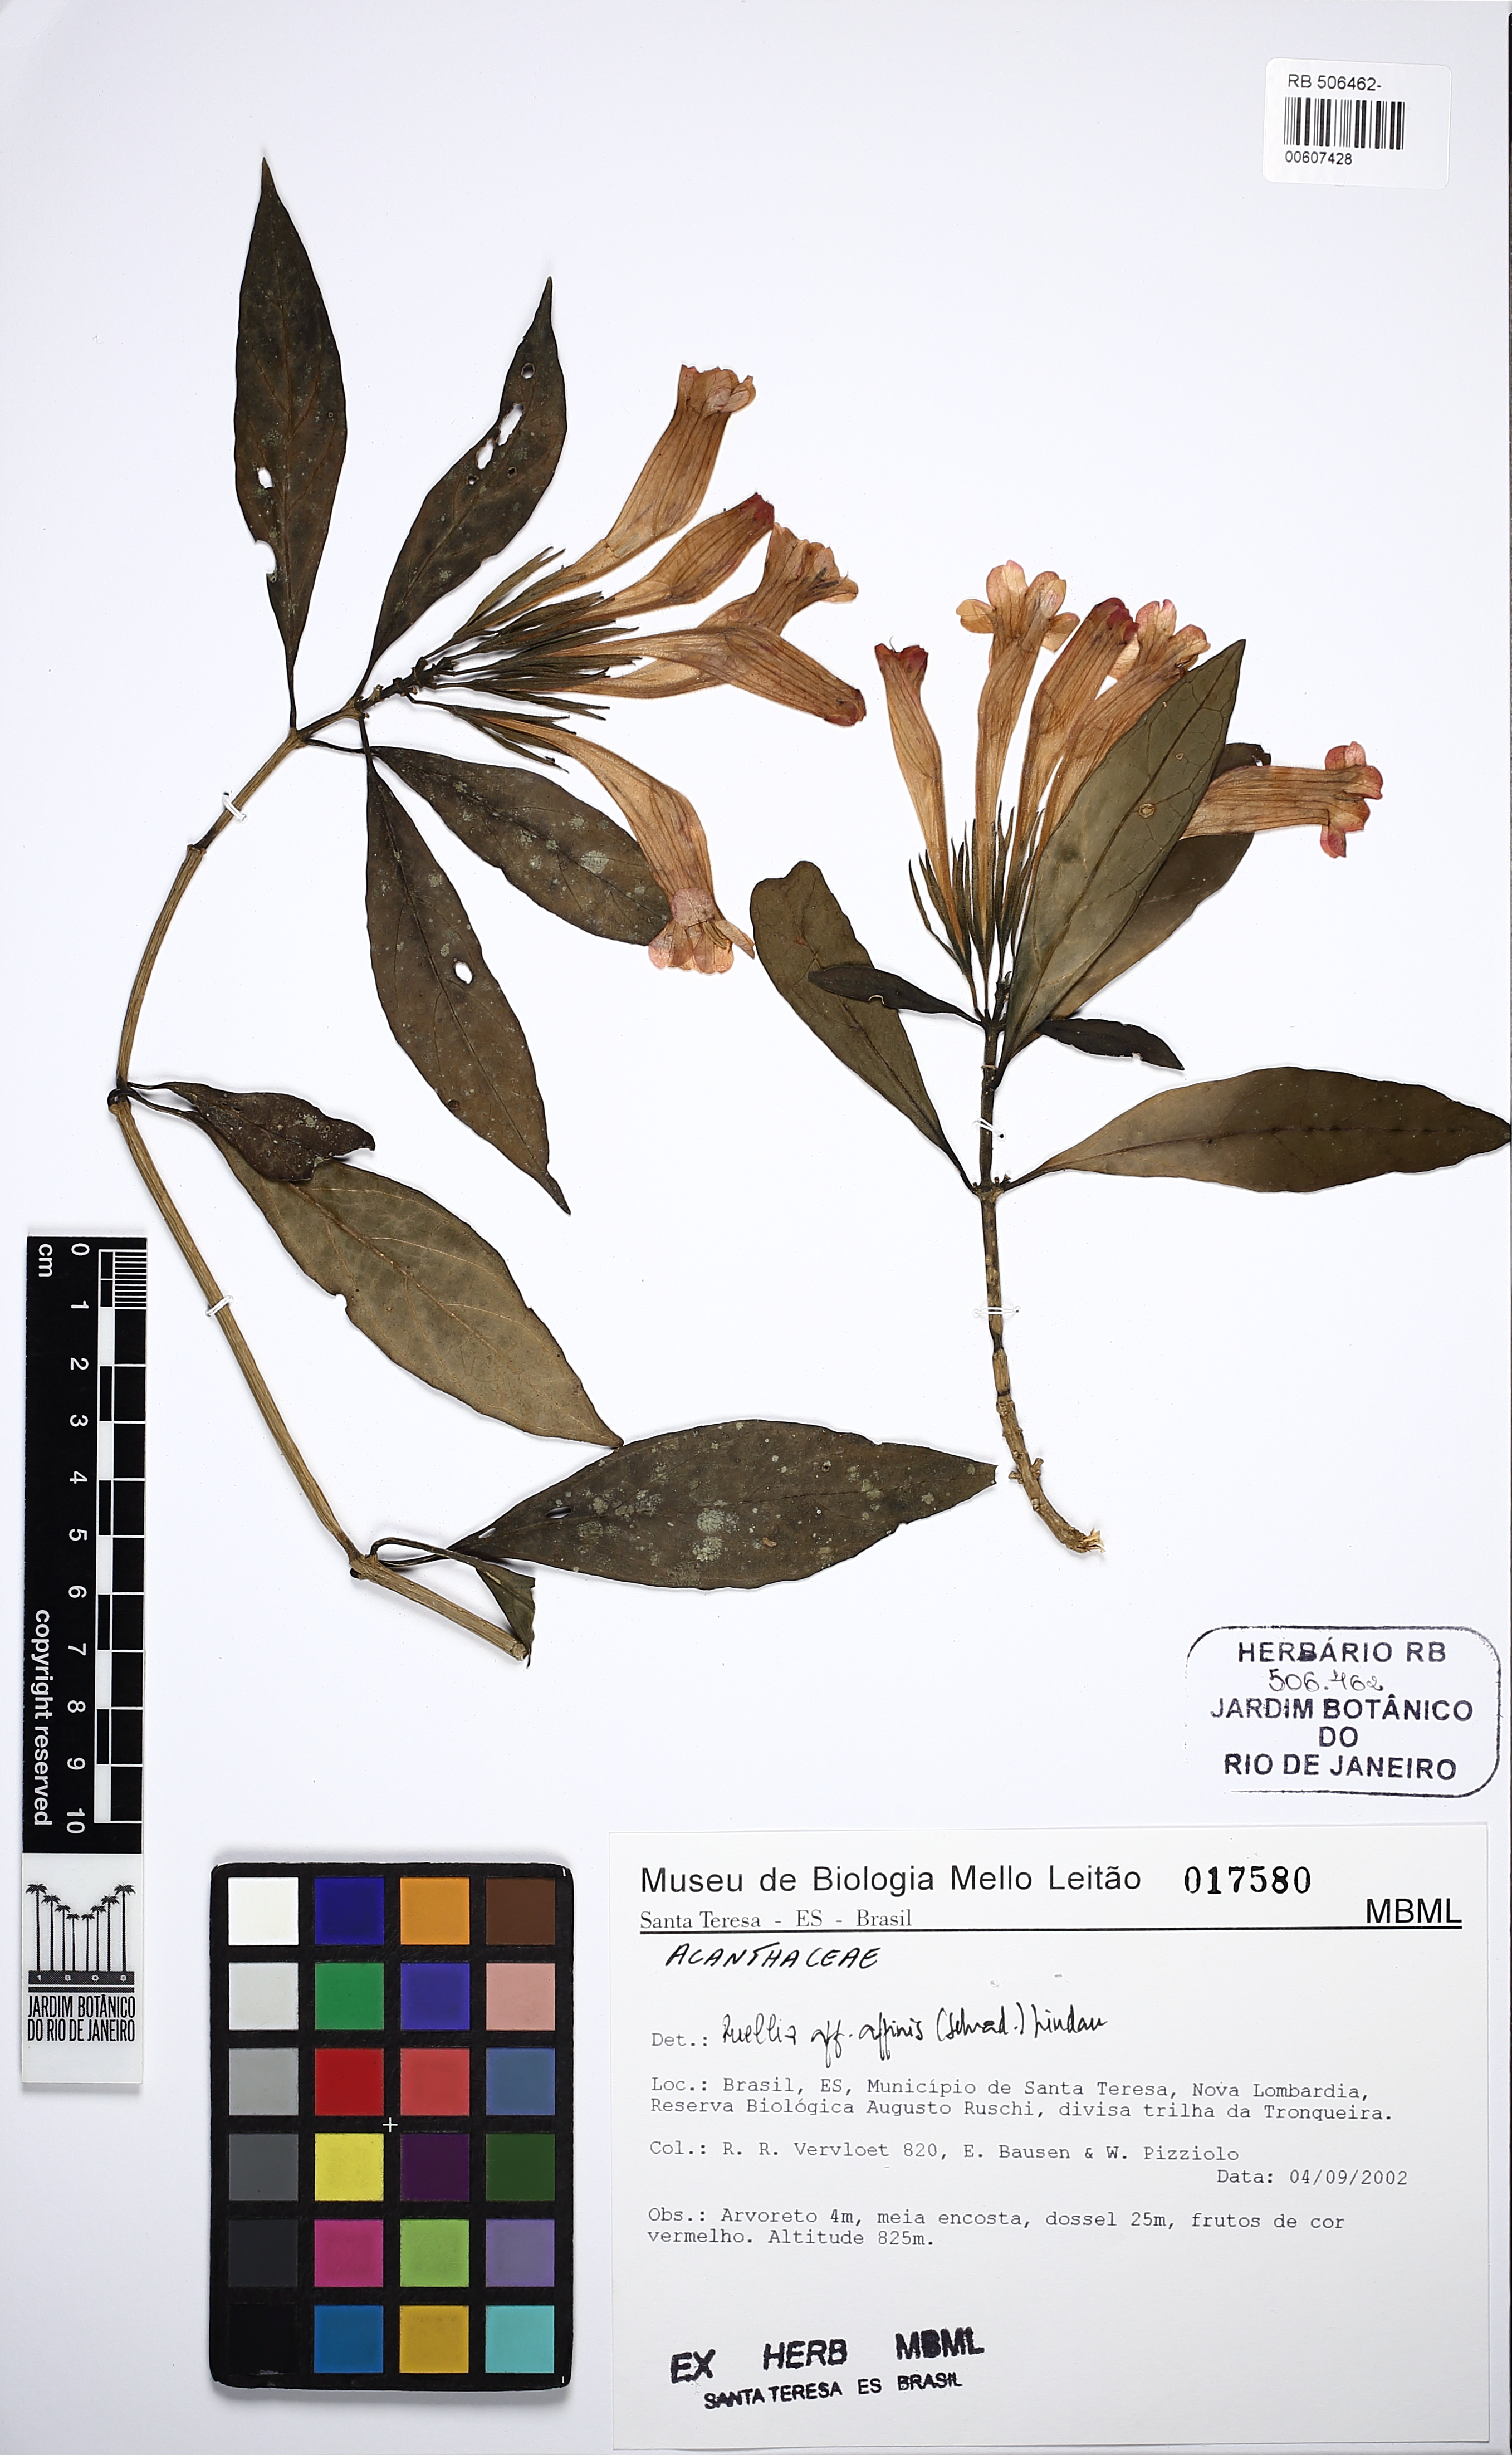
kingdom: Plantae
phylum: Tracheophyta
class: Magnoliopsida
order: Lamiales
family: Acanthaceae
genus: Ruellia
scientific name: Ruellia
